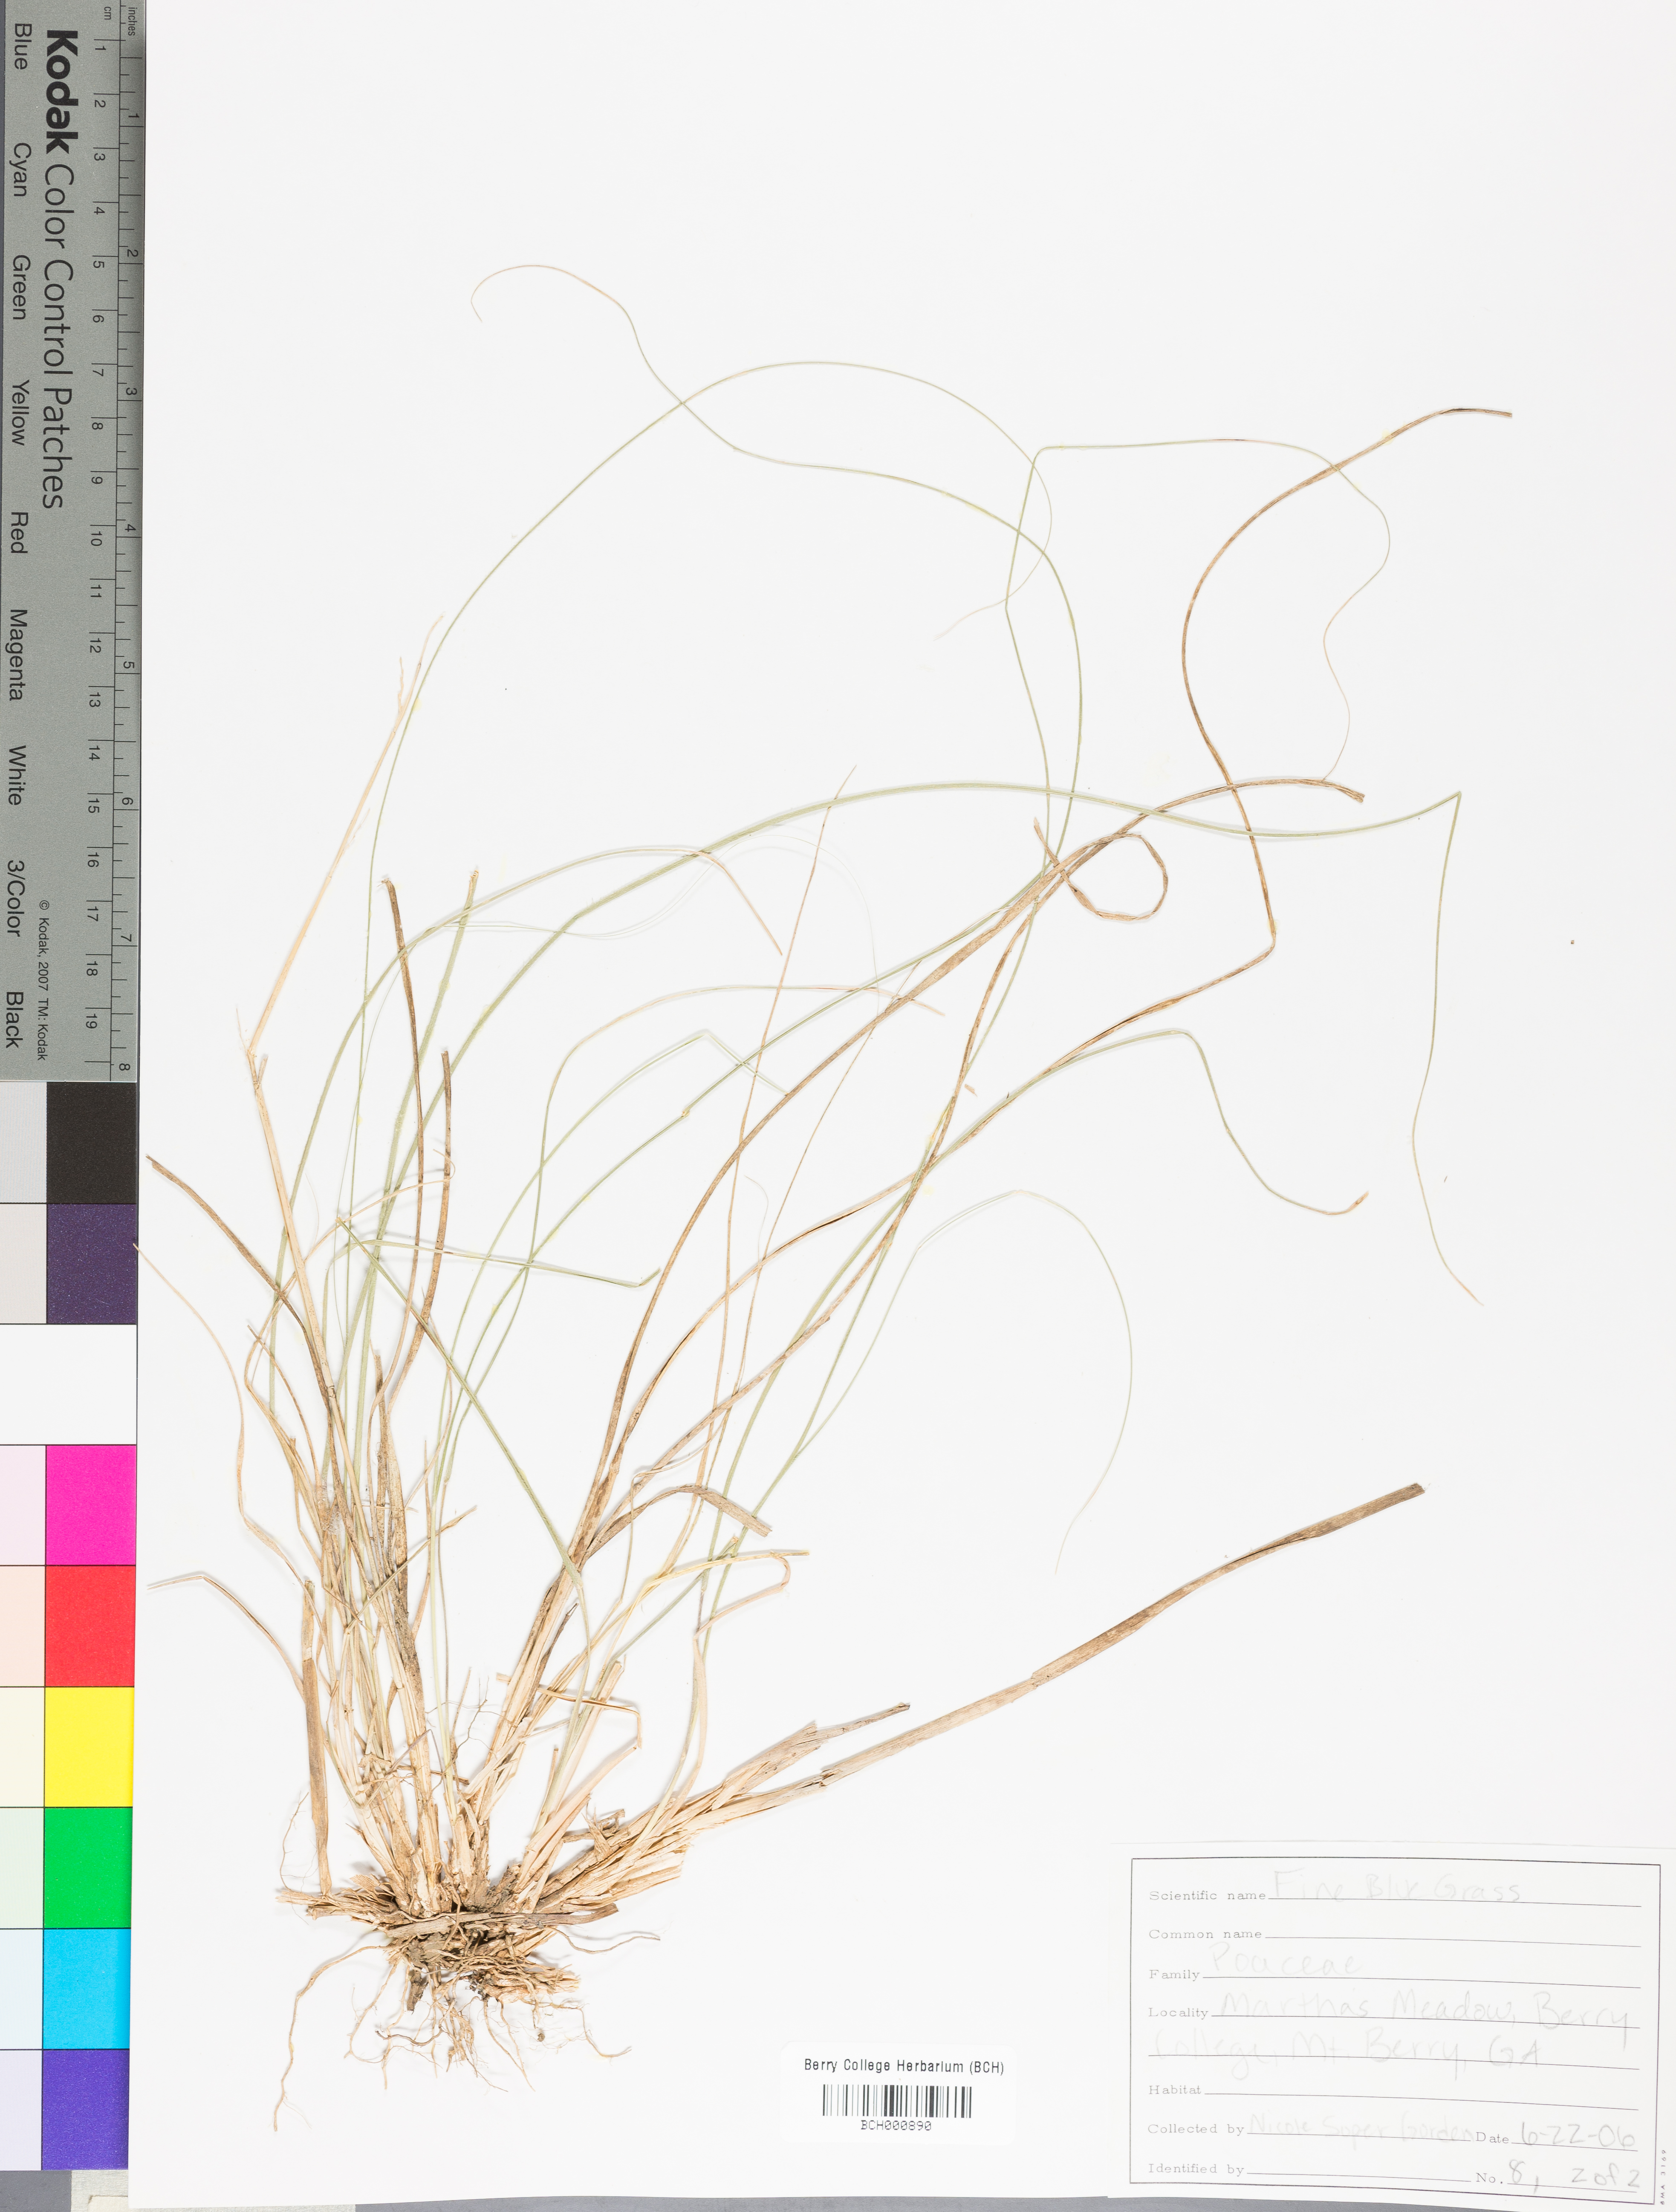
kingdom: Plantae
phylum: Tracheophyta
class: Magnoliopsida
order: Lamiales
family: Acanthaceae
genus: Adhatoda
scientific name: Adhatoda
